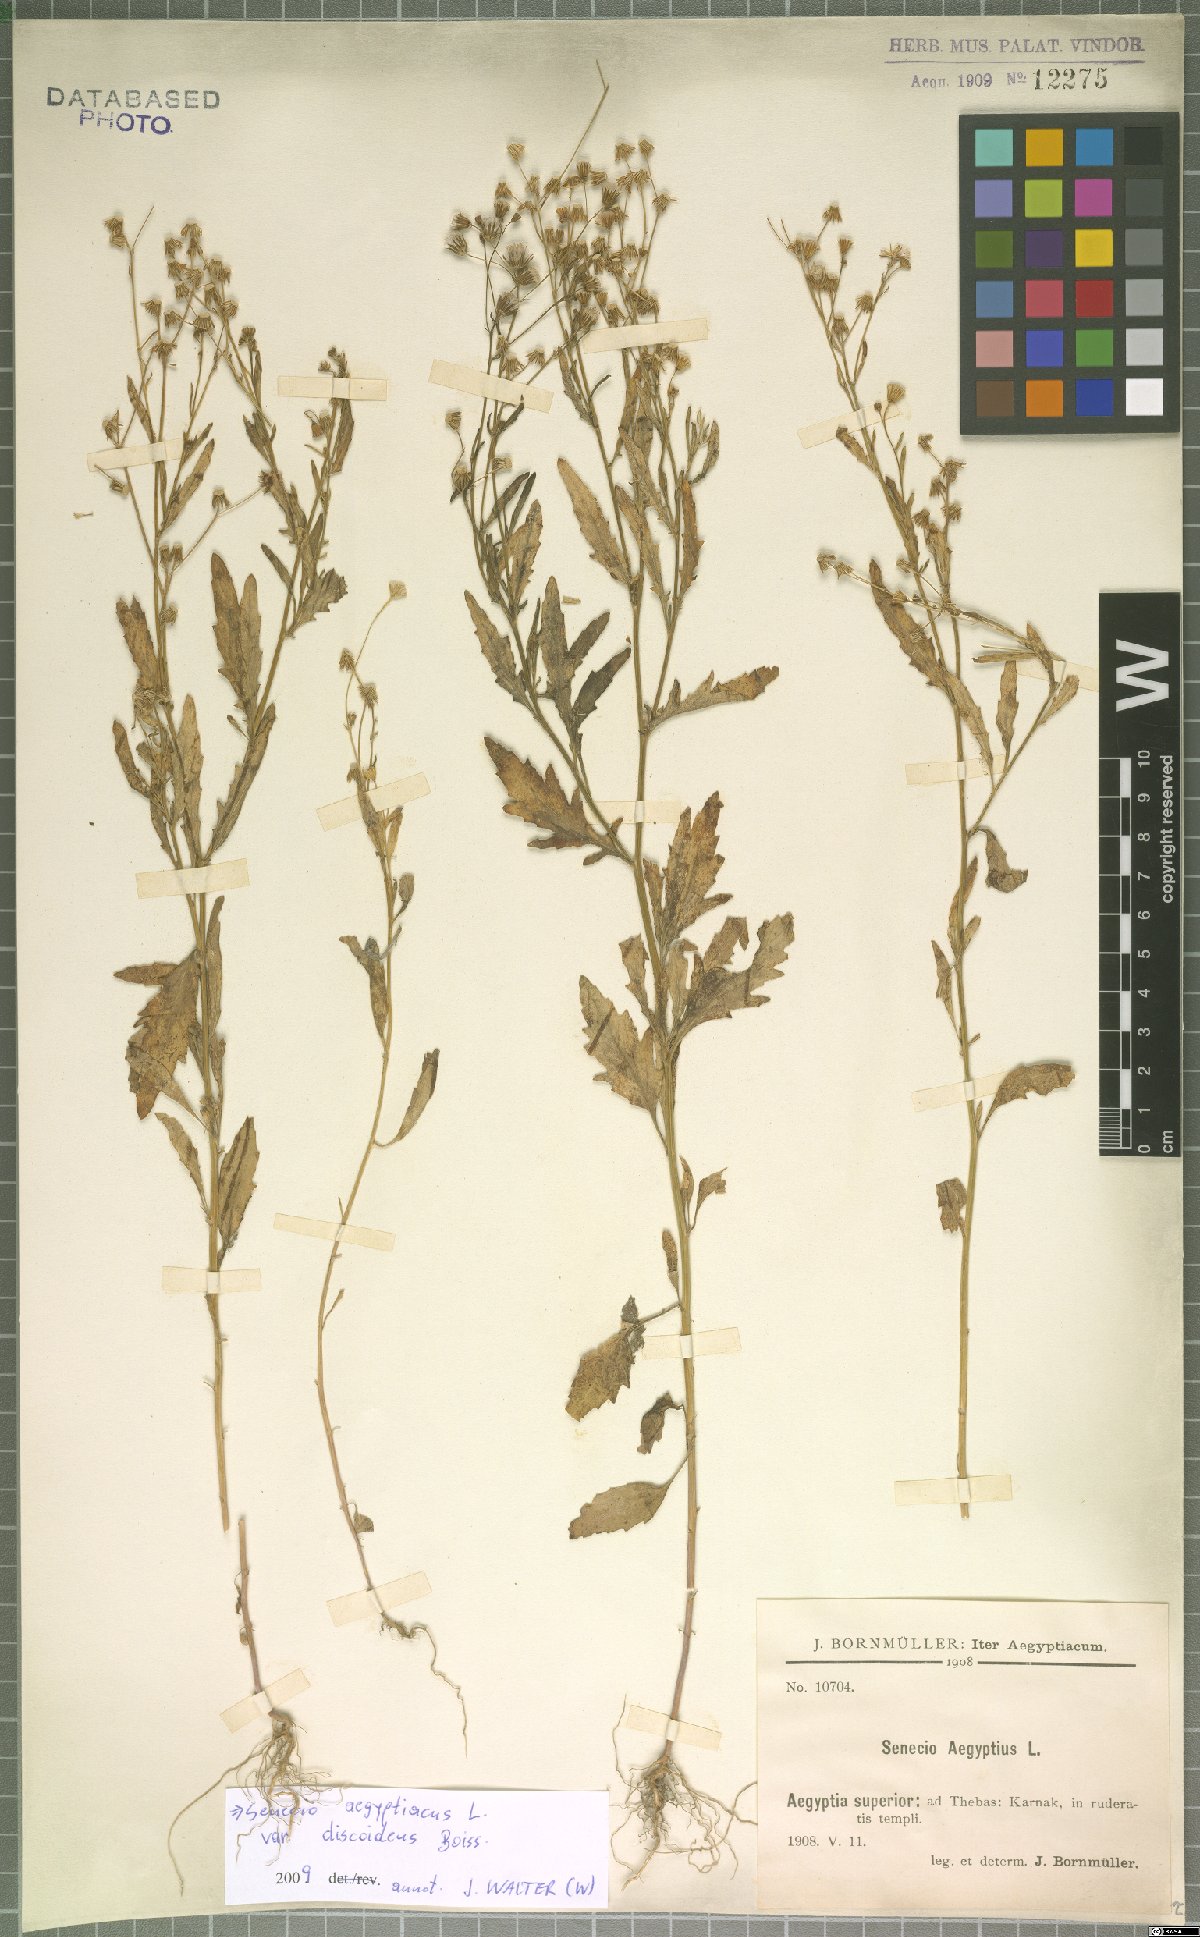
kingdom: Plantae
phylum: Tracheophyta
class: Magnoliopsida
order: Asterales
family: Asteraceae
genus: Senecio
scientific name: Senecio aegyptius
